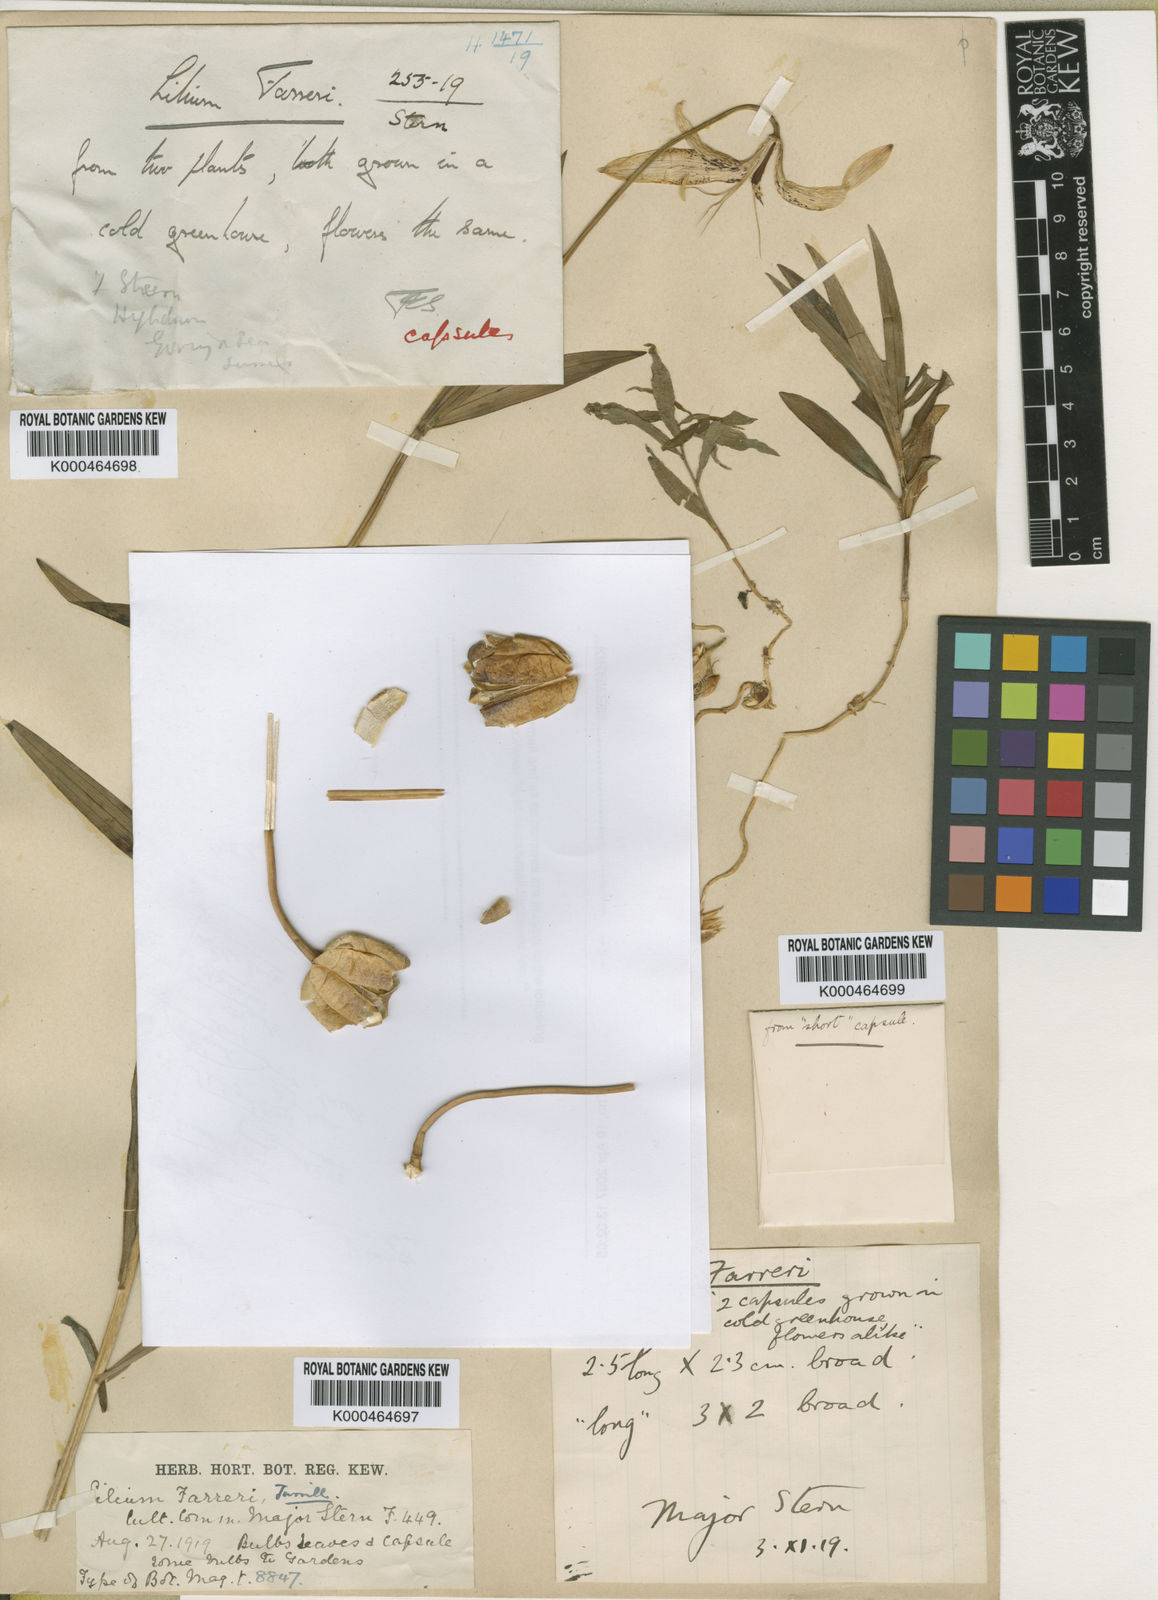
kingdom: Plantae
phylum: Tracheophyta
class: Liliopsida
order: Liliales
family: Liliaceae
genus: Lilium
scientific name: Lilium duchartrei
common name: Duchartre lily
